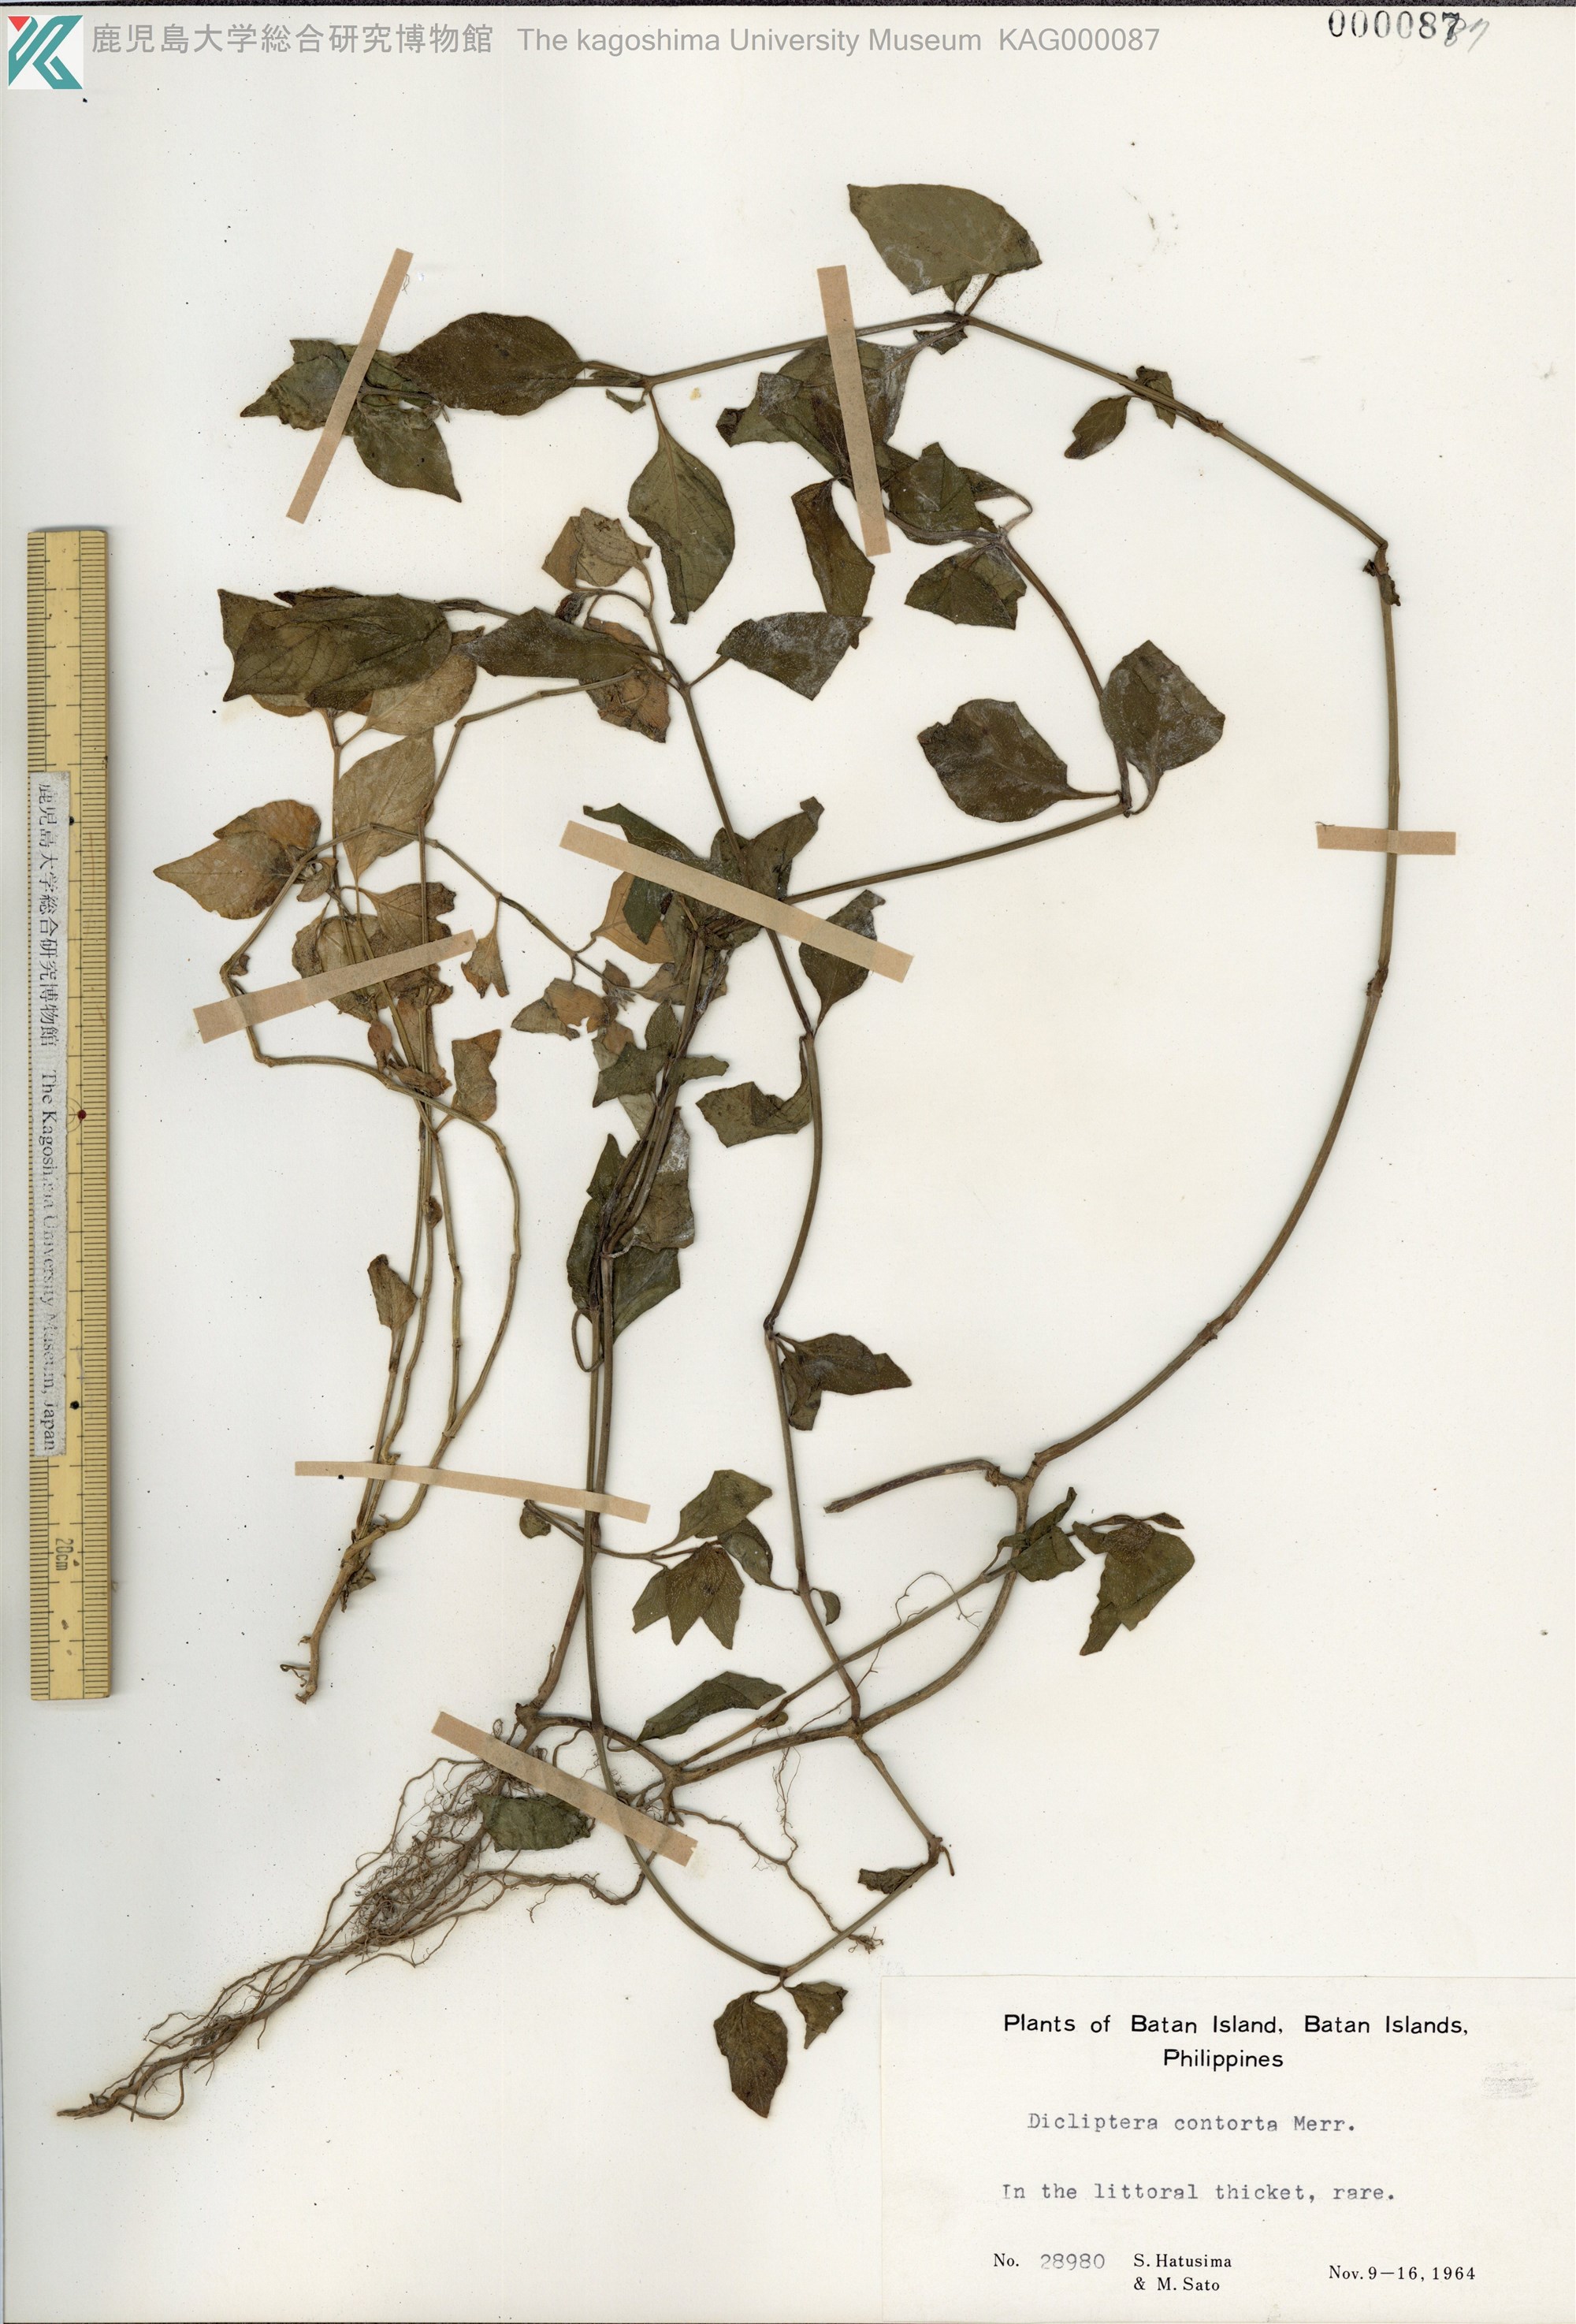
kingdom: Plantae
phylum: Tracheophyta
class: Magnoliopsida
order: Lamiales
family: Acanthaceae
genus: Dicliptera
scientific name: Dicliptera contorta
